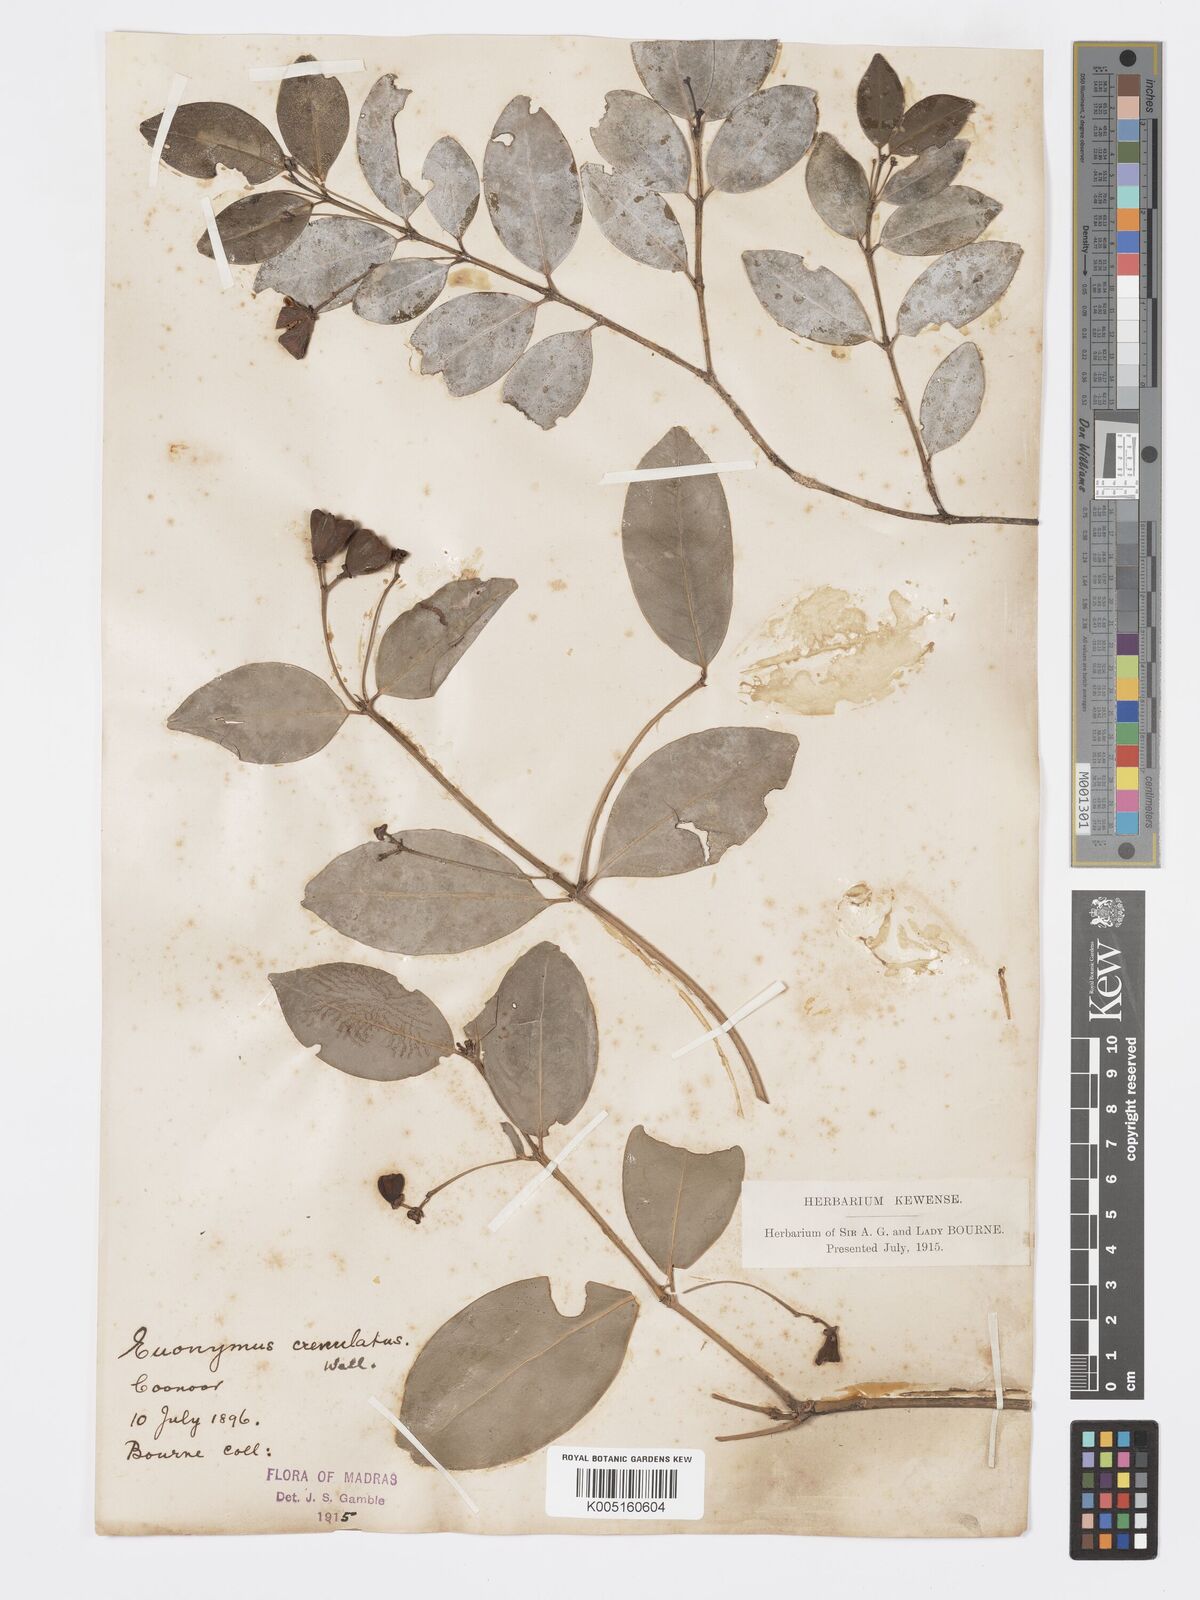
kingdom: Plantae
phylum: Tracheophyta
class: Magnoliopsida
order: Celastrales
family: Celastraceae
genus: Euonymus
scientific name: Euonymus crenulatus
